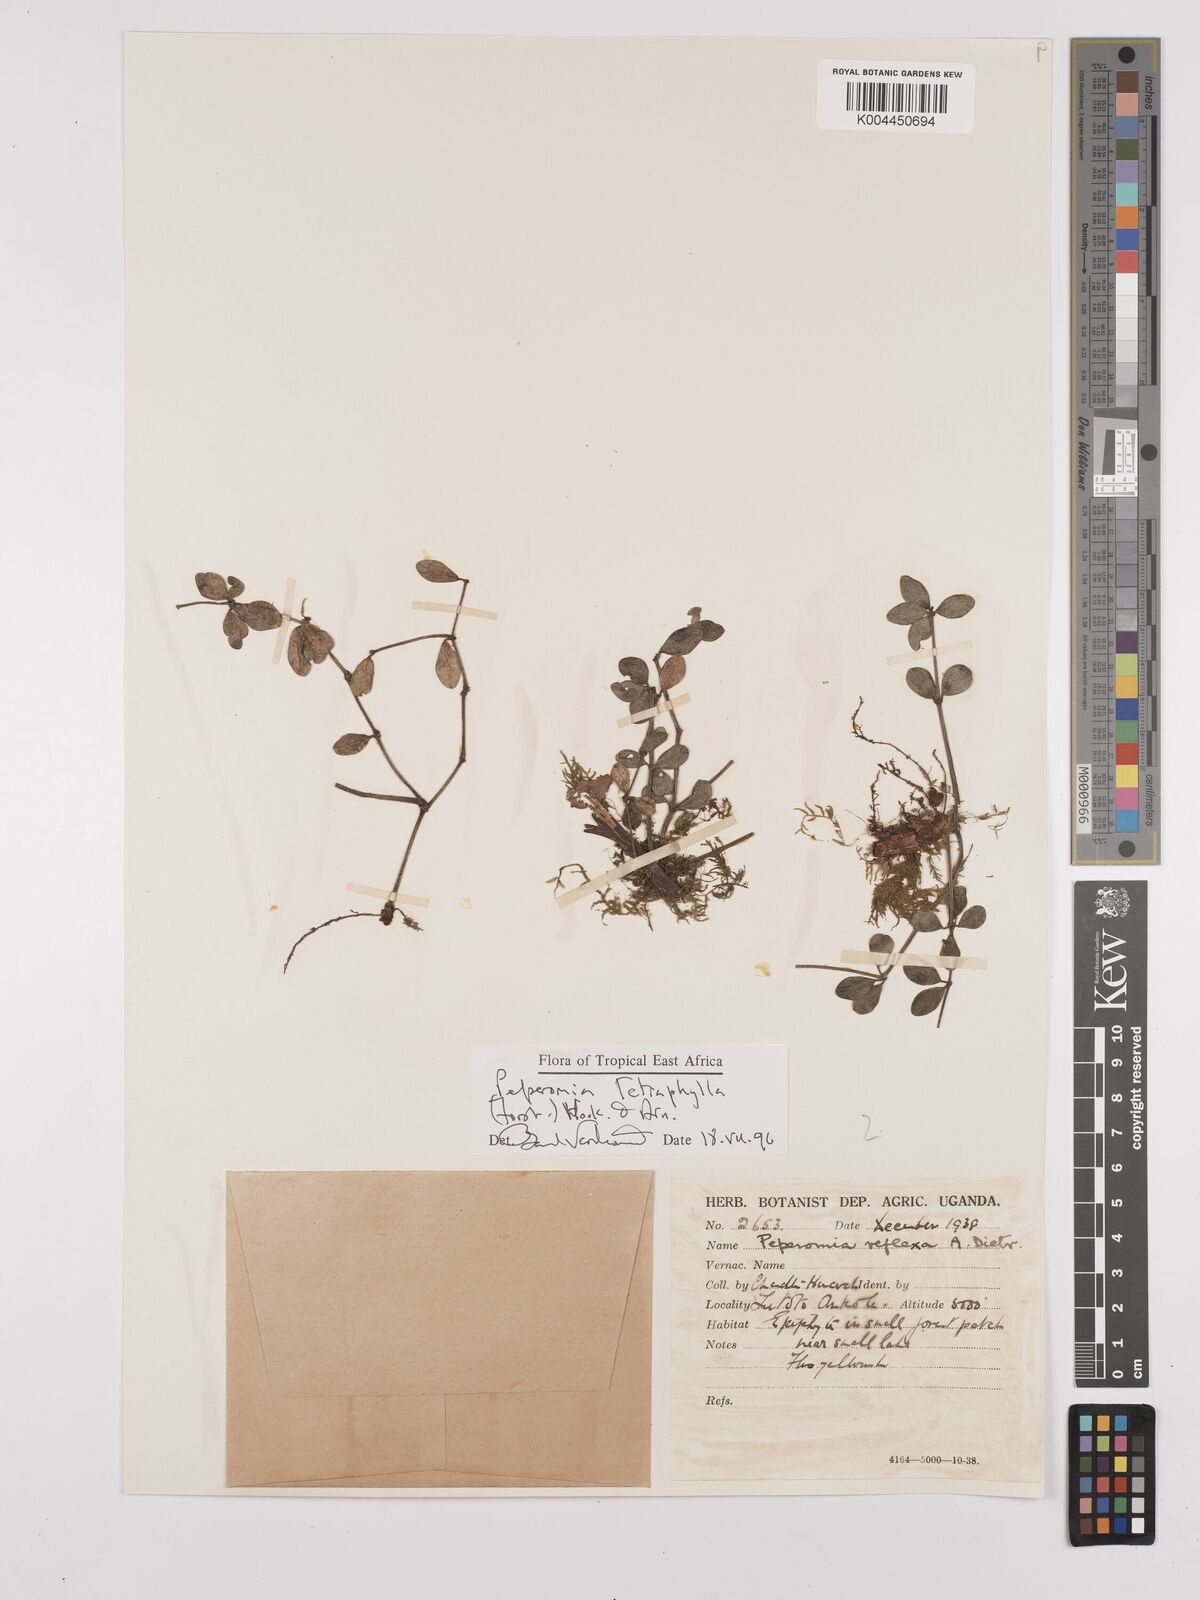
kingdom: Plantae
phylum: Tracheophyta
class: Magnoliopsida
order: Piperales
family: Piperaceae
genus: Peperomia
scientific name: Peperomia tetraphylla
